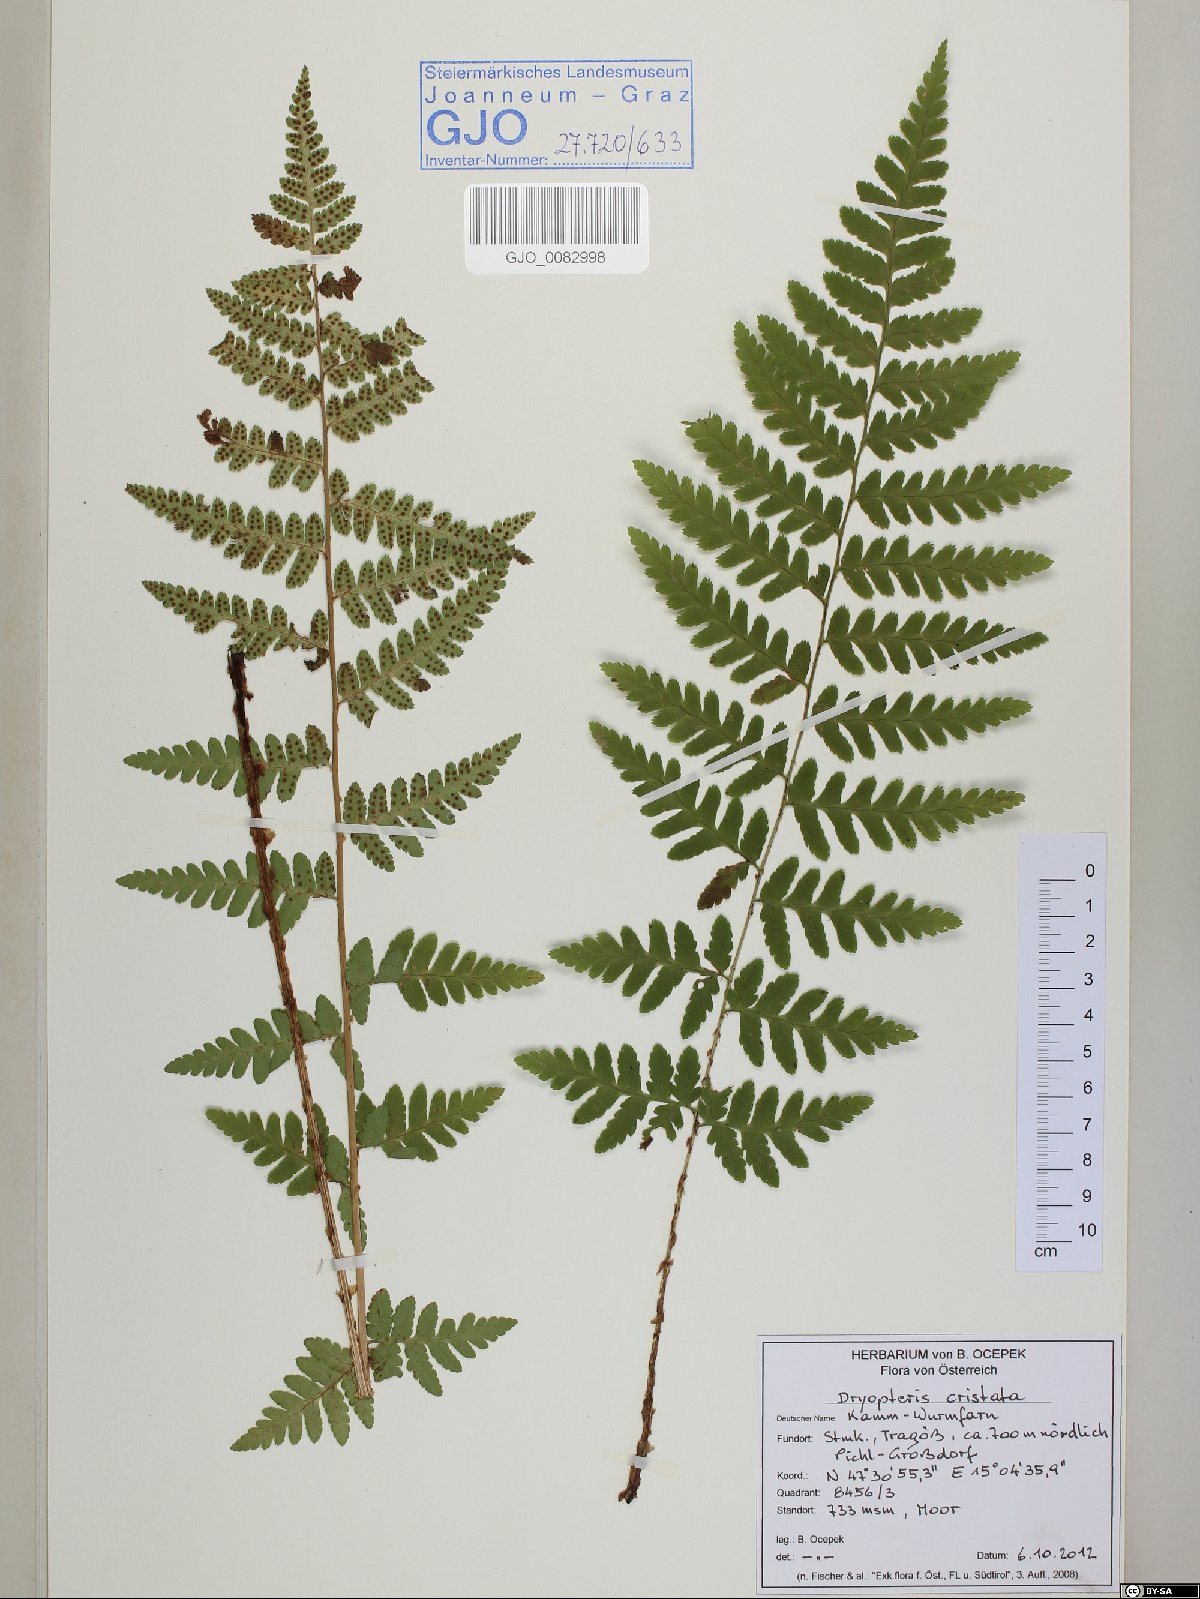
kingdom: Plantae
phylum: Tracheophyta
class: Polypodiopsida
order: Polypodiales
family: Dryopteridaceae
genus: Dryopteris
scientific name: Dryopteris cristata
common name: Crested wood fern
